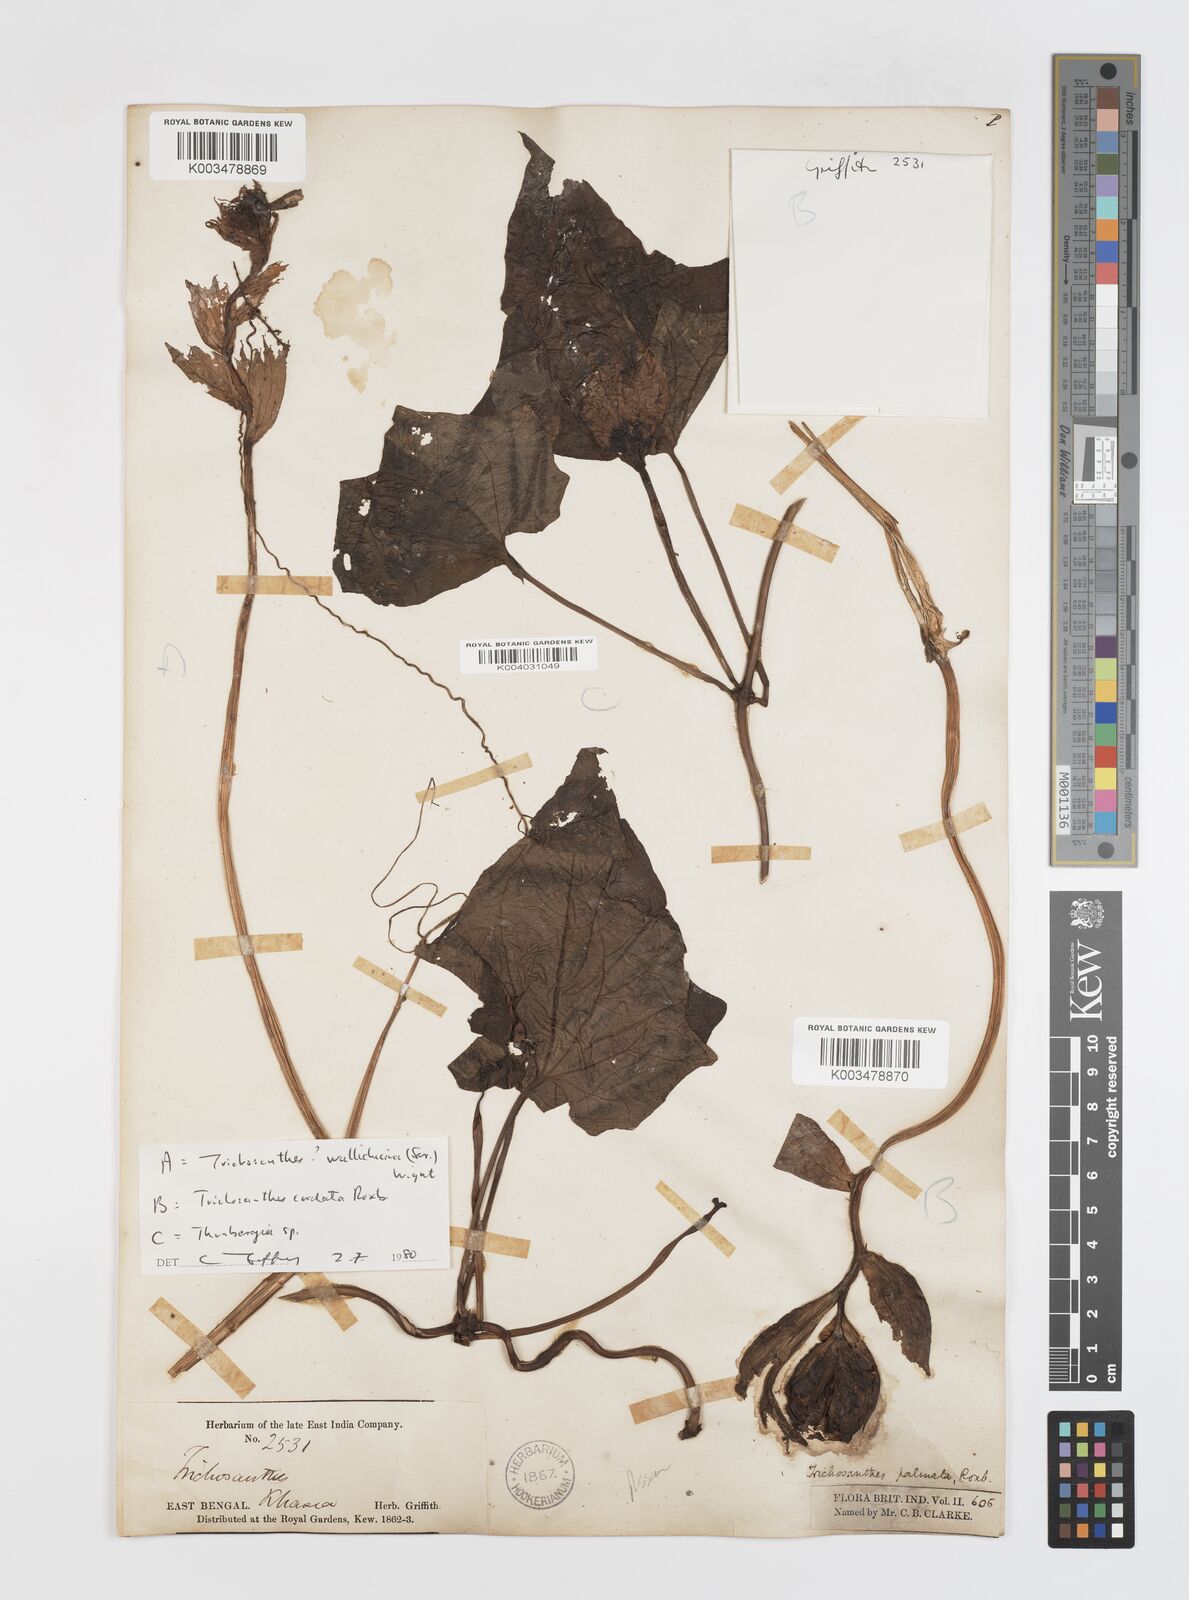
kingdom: Plantae
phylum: Tracheophyta
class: Magnoliopsida
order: Cucurbitales
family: Cucurbitaceae
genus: Trichosanthes
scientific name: Trichosanthes cordata
